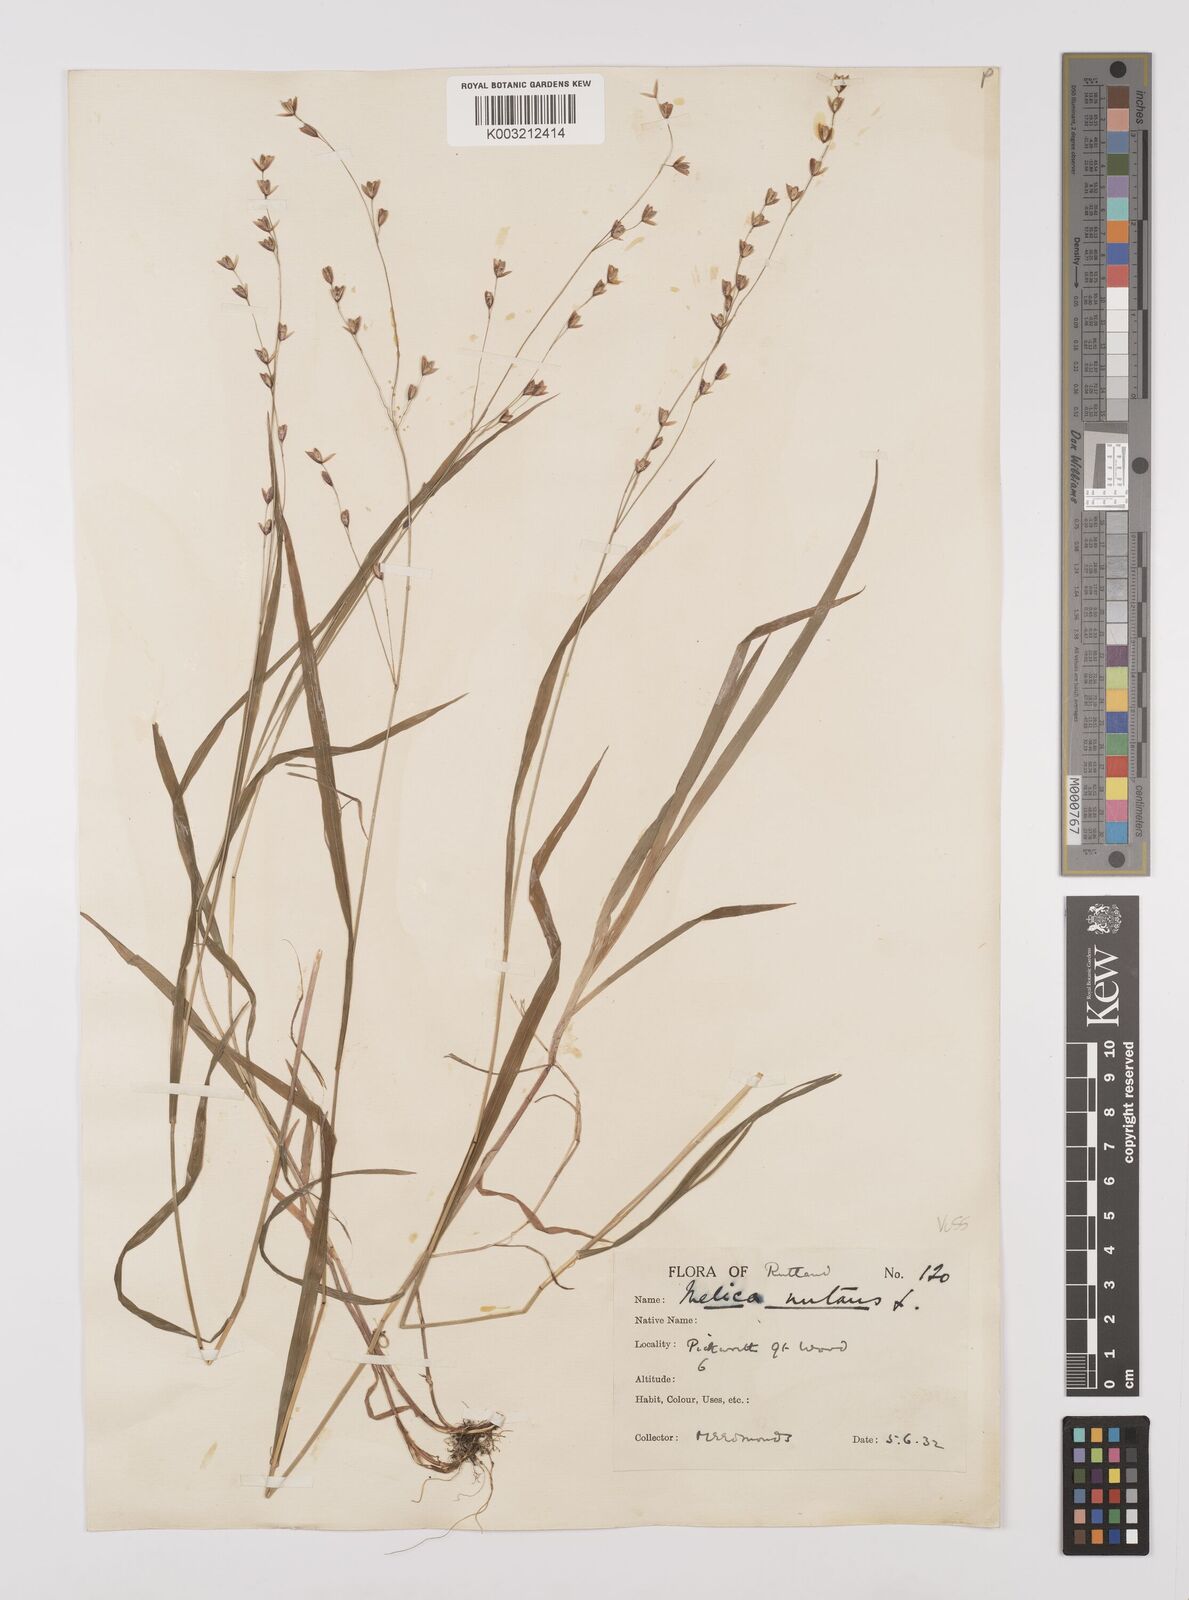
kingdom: Plantae
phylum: Tracheophyta
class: Liliopsida
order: Poales
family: Poaceae
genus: Melica
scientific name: Melica uniflora
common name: Wood melick
